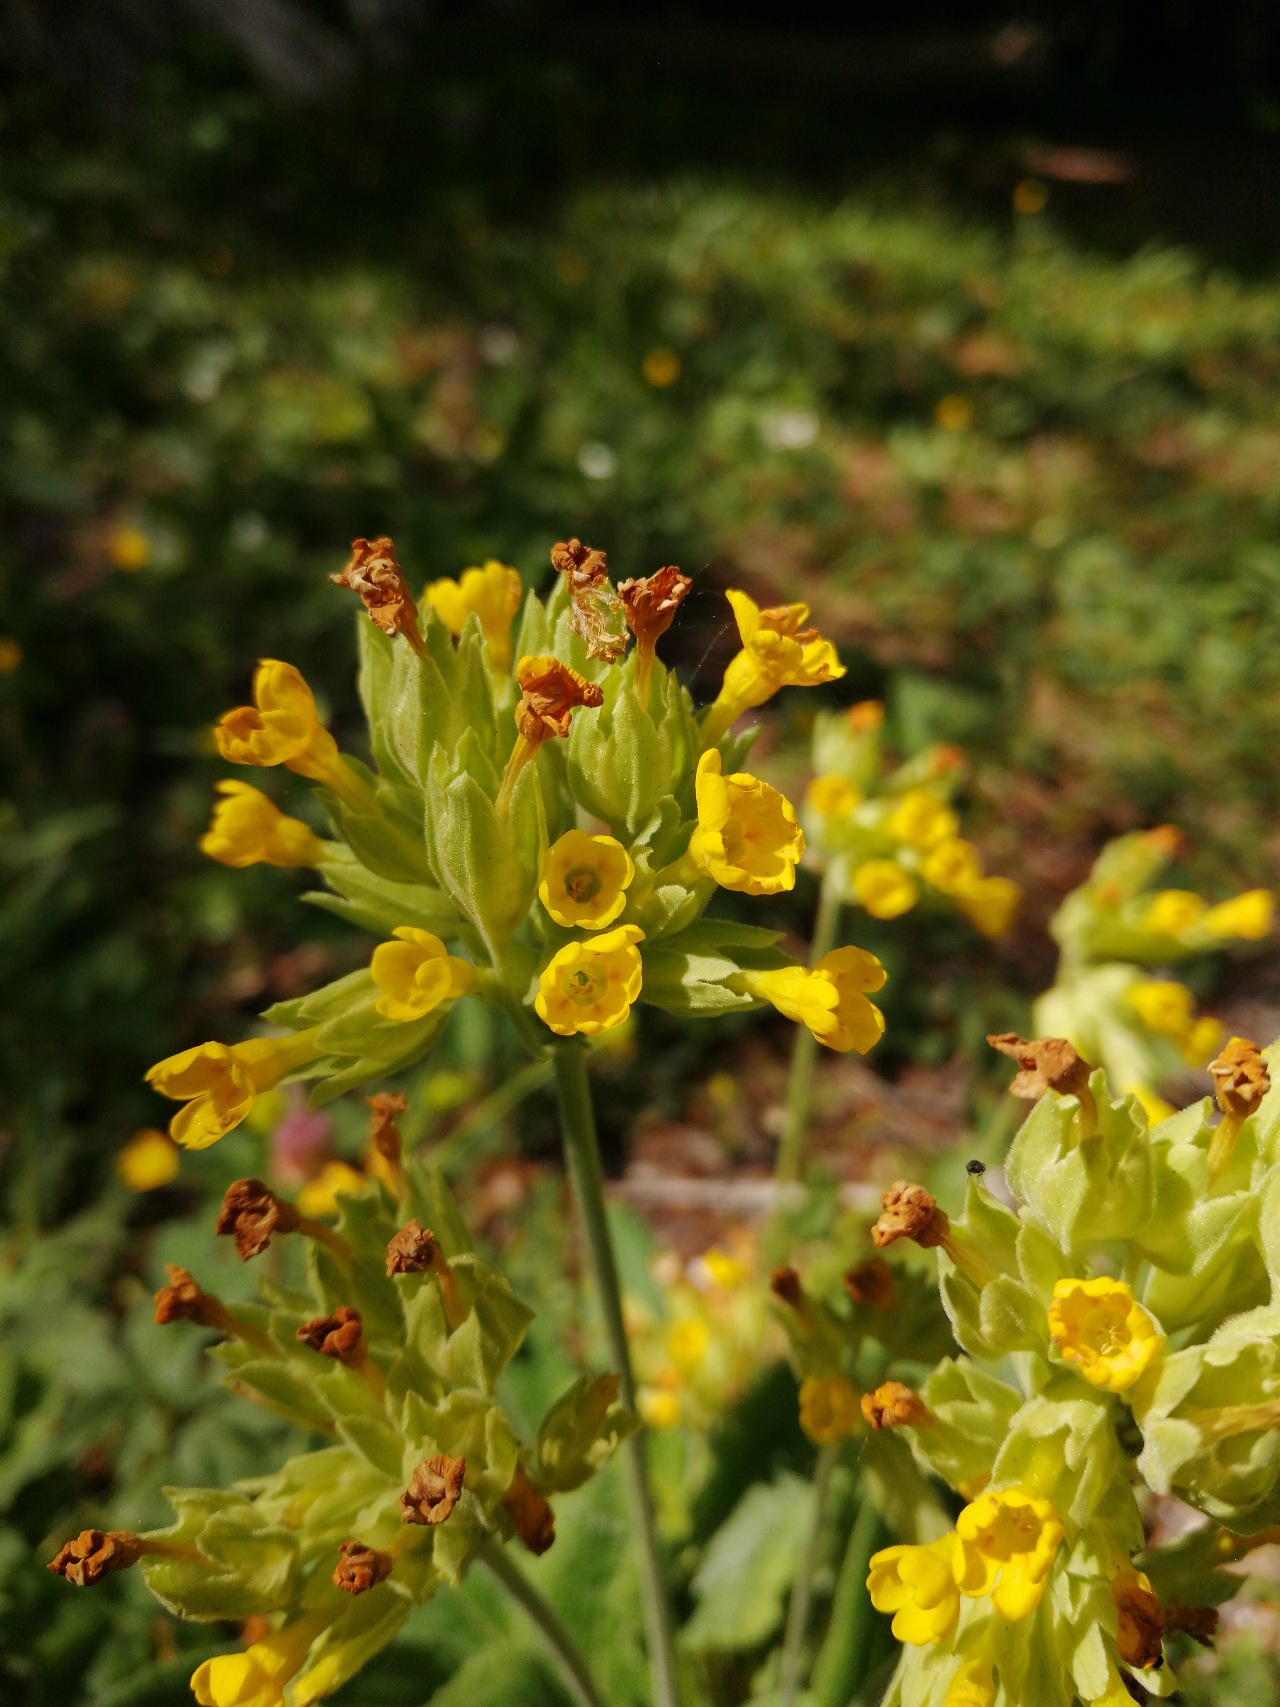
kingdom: Plantae
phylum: Tracheophyta
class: Magnoliopsida
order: Ericales
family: Primulaceae
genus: Primula
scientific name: Primula veris
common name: Hulkravet kodriver
